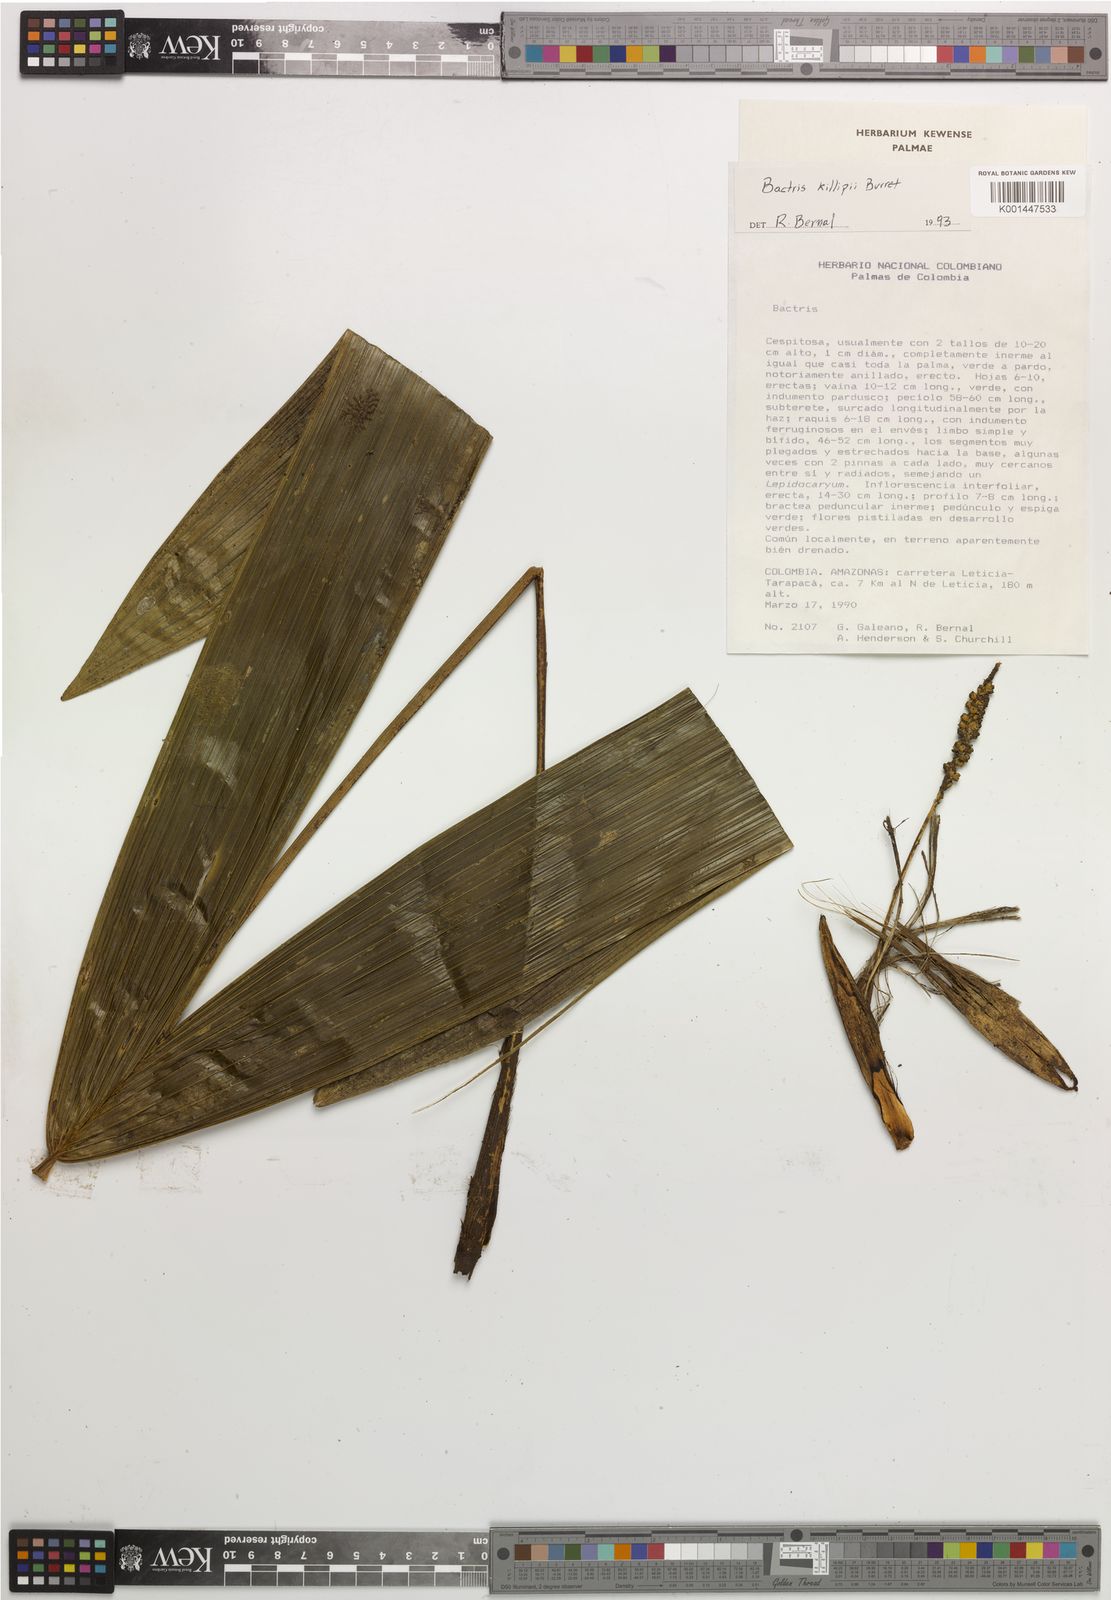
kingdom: Plantae
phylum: Tracheophyta
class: Liliopsida
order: Arecales
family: Arecaceae
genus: Bactris
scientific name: Bactris killipii
